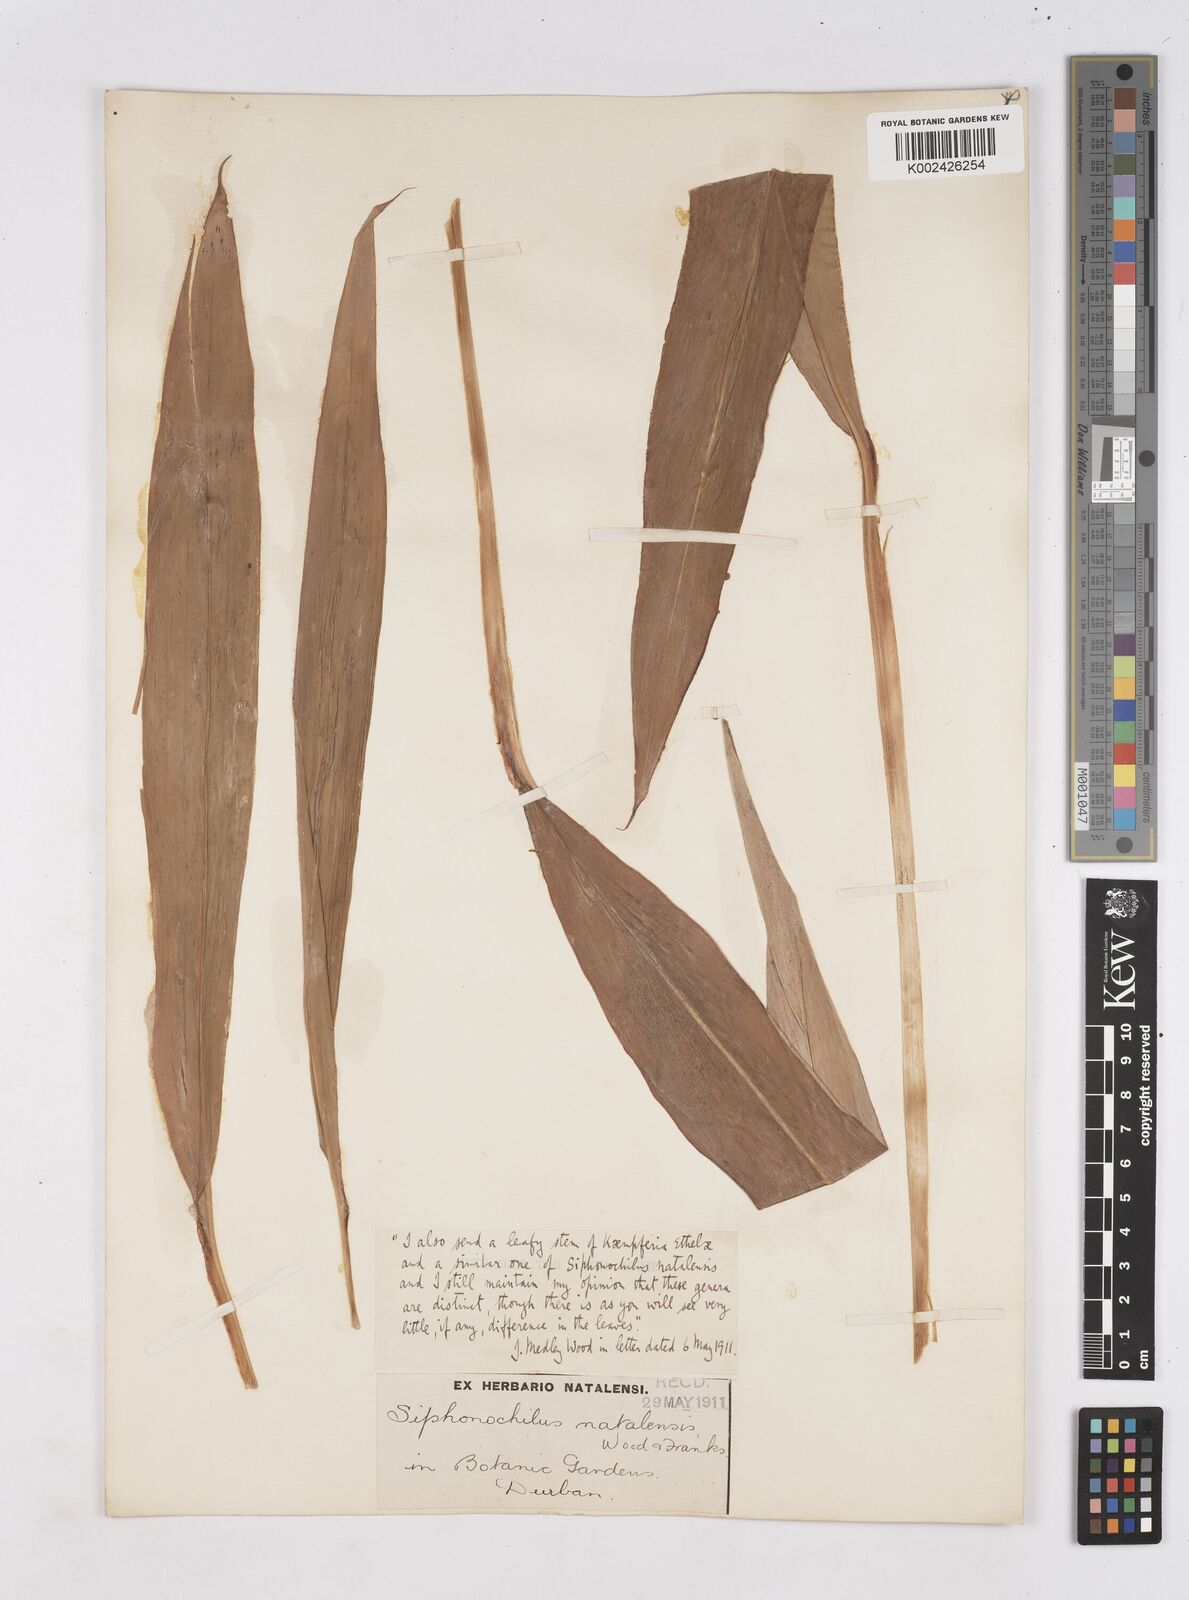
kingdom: Plantae
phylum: Tracheophyta
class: Liliopsida
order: Zingiberales
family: Zingiberaceae
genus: Siphonochilus
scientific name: Siphonochilus aethiopicus
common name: African-ginger
